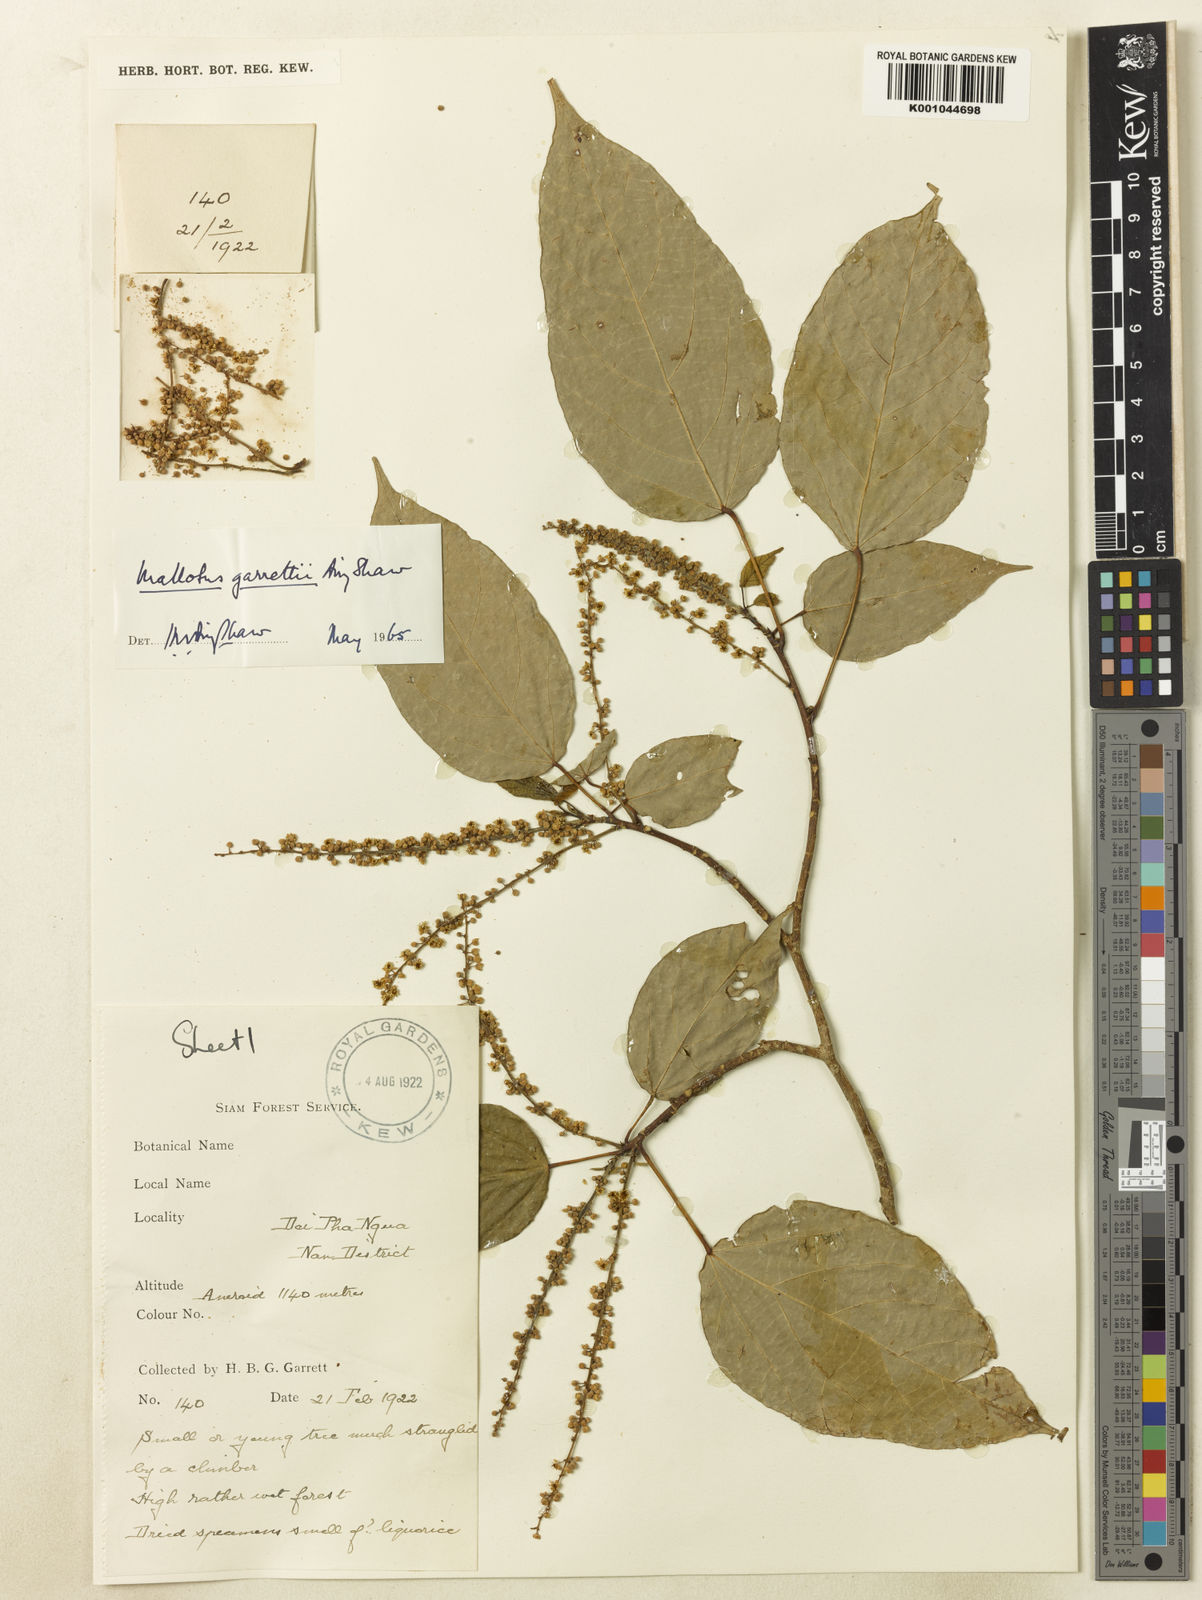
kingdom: Plantae
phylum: Tracheophyta
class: Magnoliopsida
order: Malpighiales
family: Euphorbiaceae
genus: Mallotus
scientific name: Mallotus garrettii
